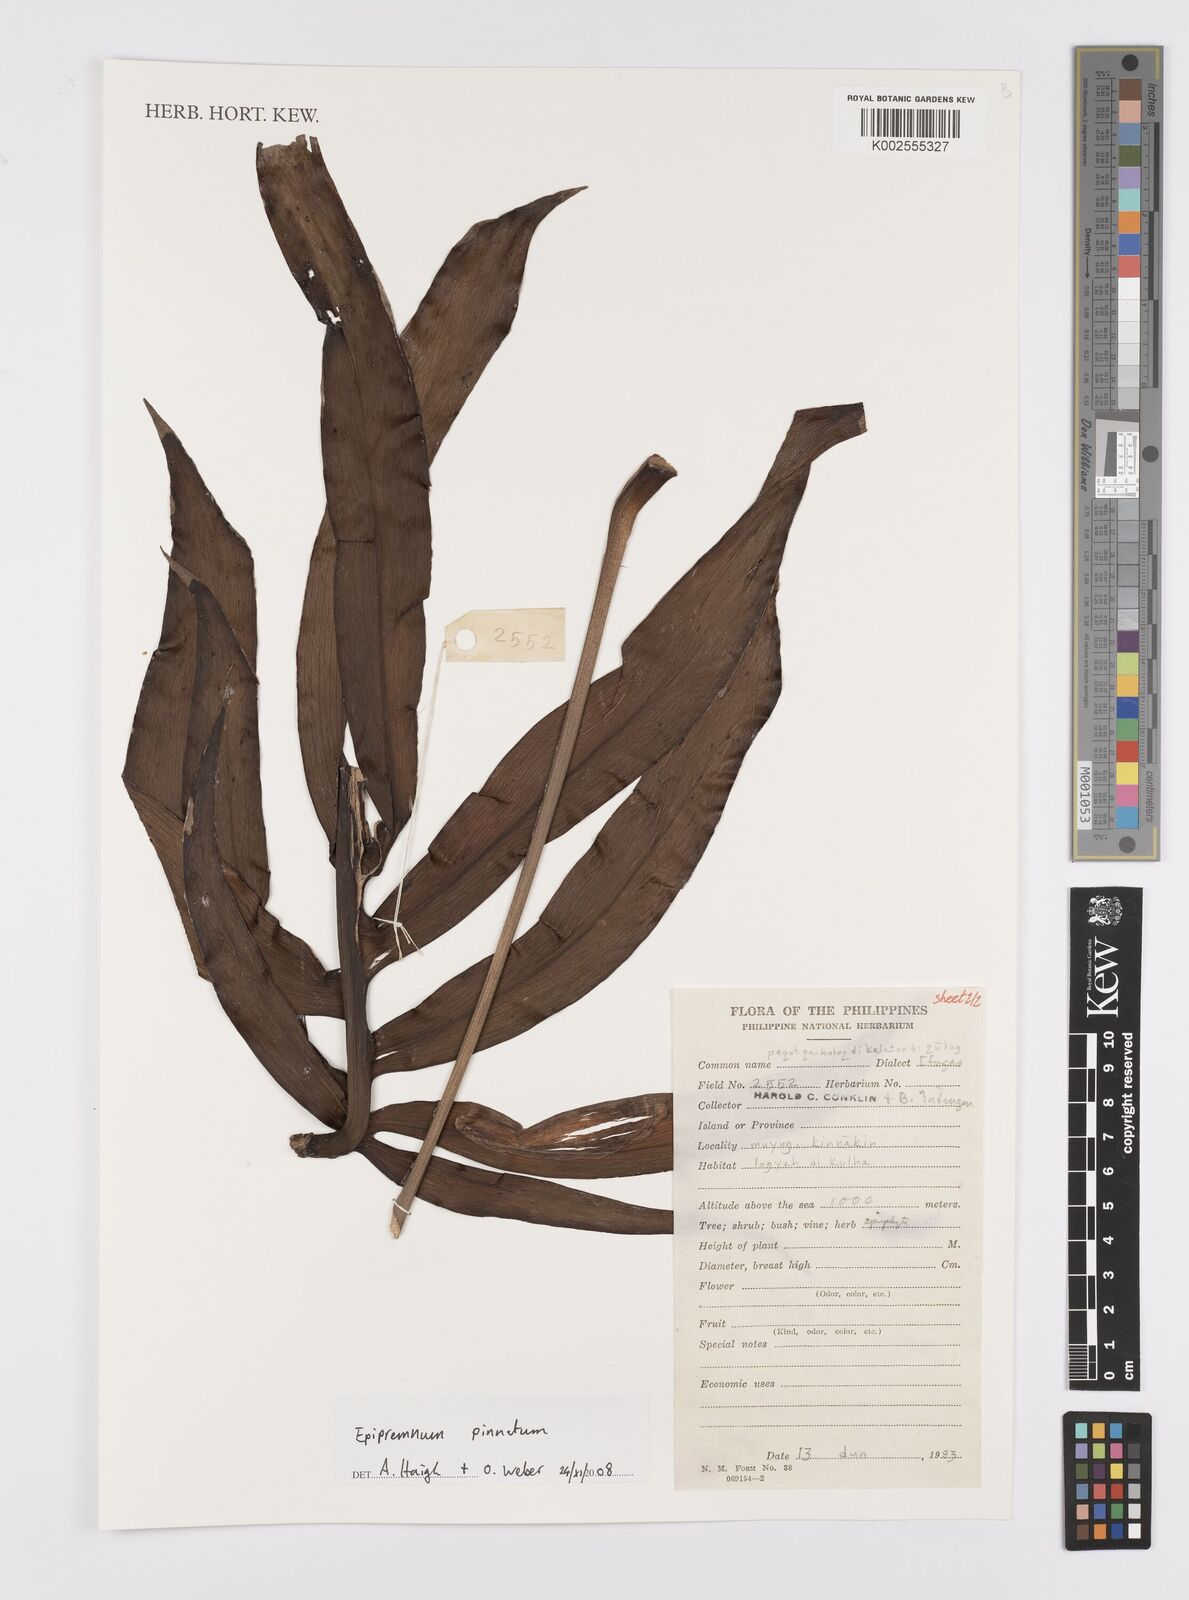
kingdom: Plantae
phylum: Tracheophyta
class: Liliopsida
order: Alismatales
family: Araceae
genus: Epipremnum
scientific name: Epipremnum pinnatum
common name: Centipede tongavine
